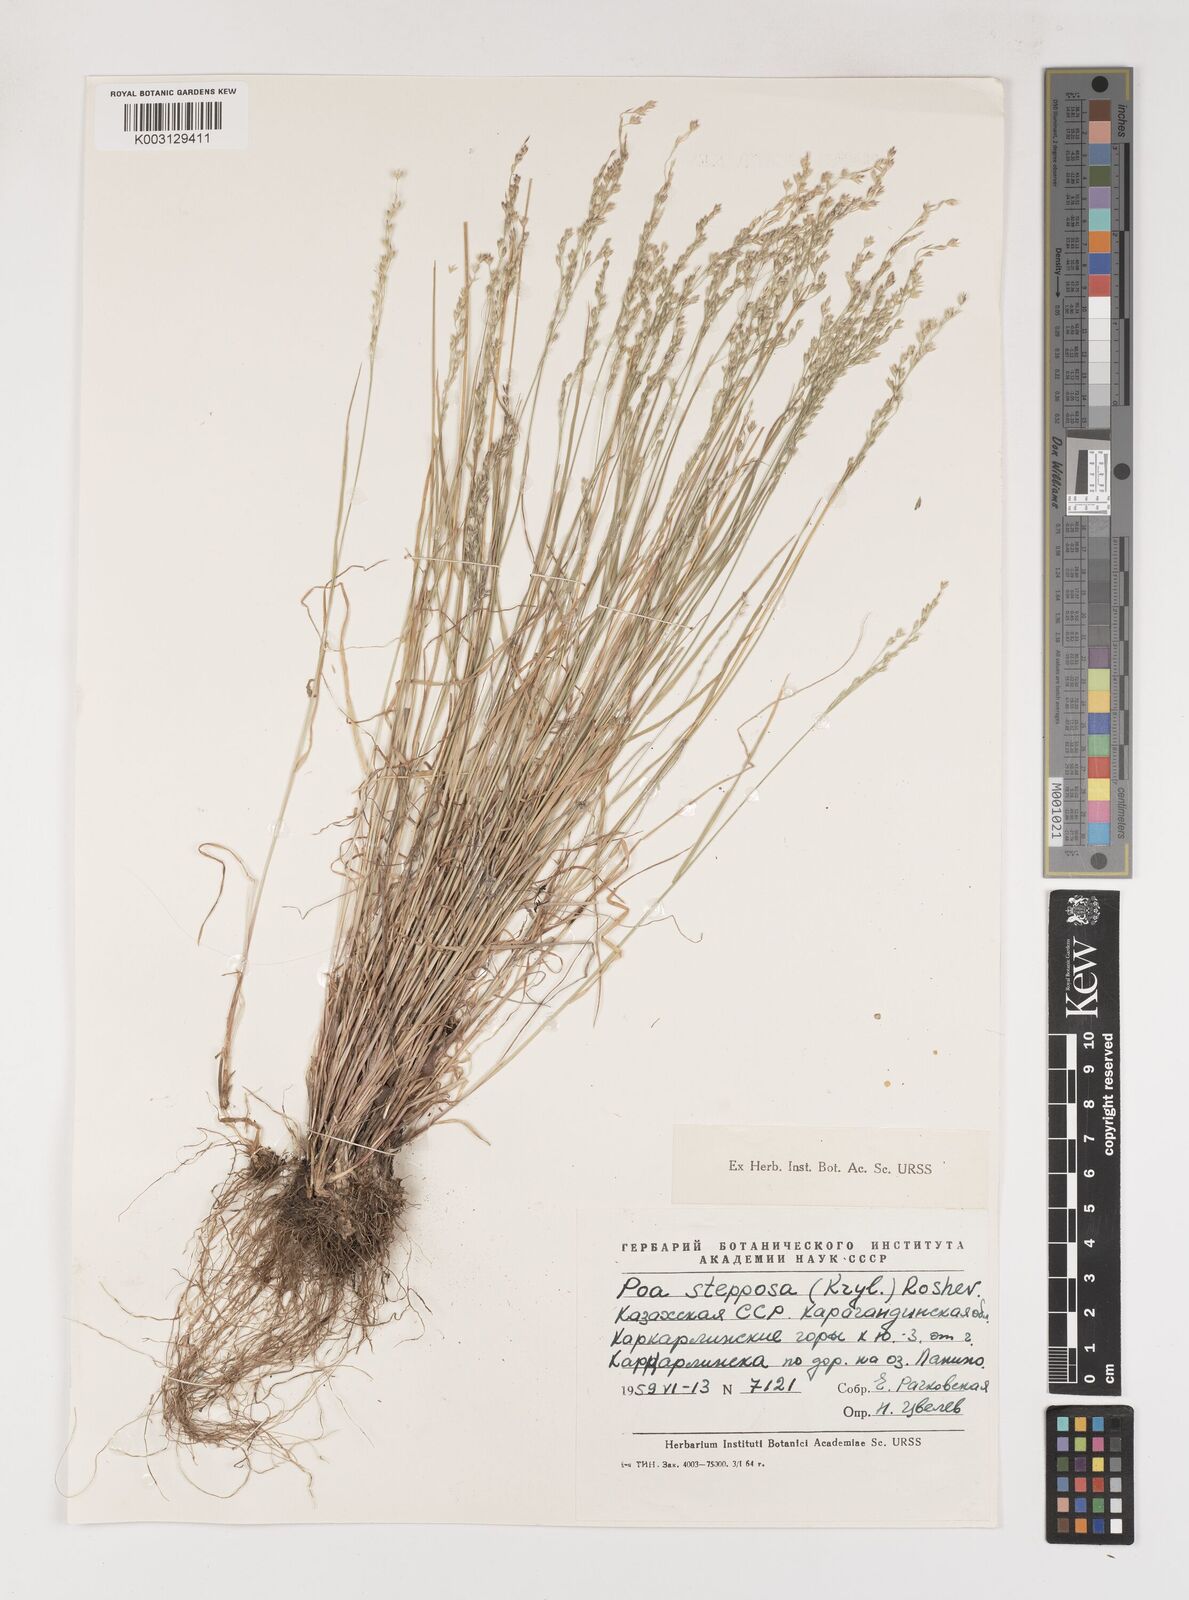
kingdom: Plantae
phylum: Tracheophyta
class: Liliopsida
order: Poales
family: Poaceae
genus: Poa
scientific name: Poa versicolor
